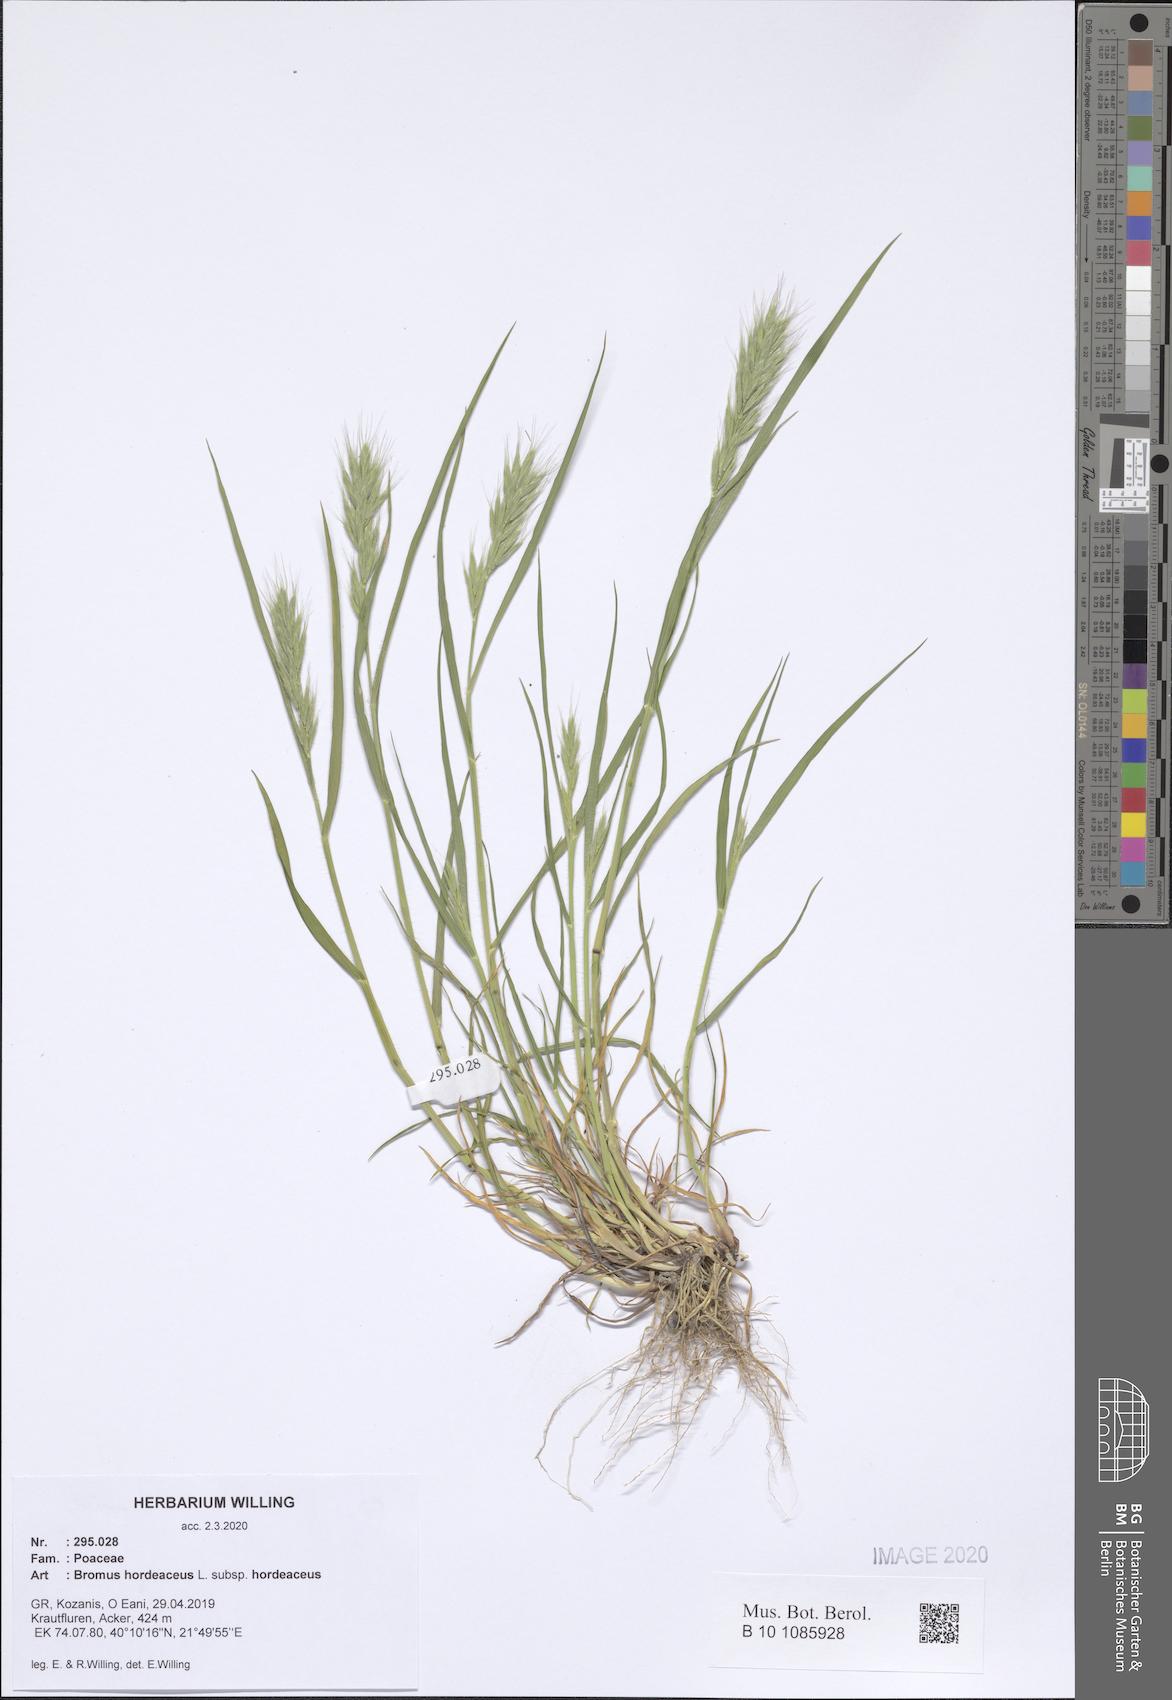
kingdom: Plantae
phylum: Tracheophyta
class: Liliopsida
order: Poales
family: Poaceae
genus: Bromus
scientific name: Bromus hordeaceus
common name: Soft brome
